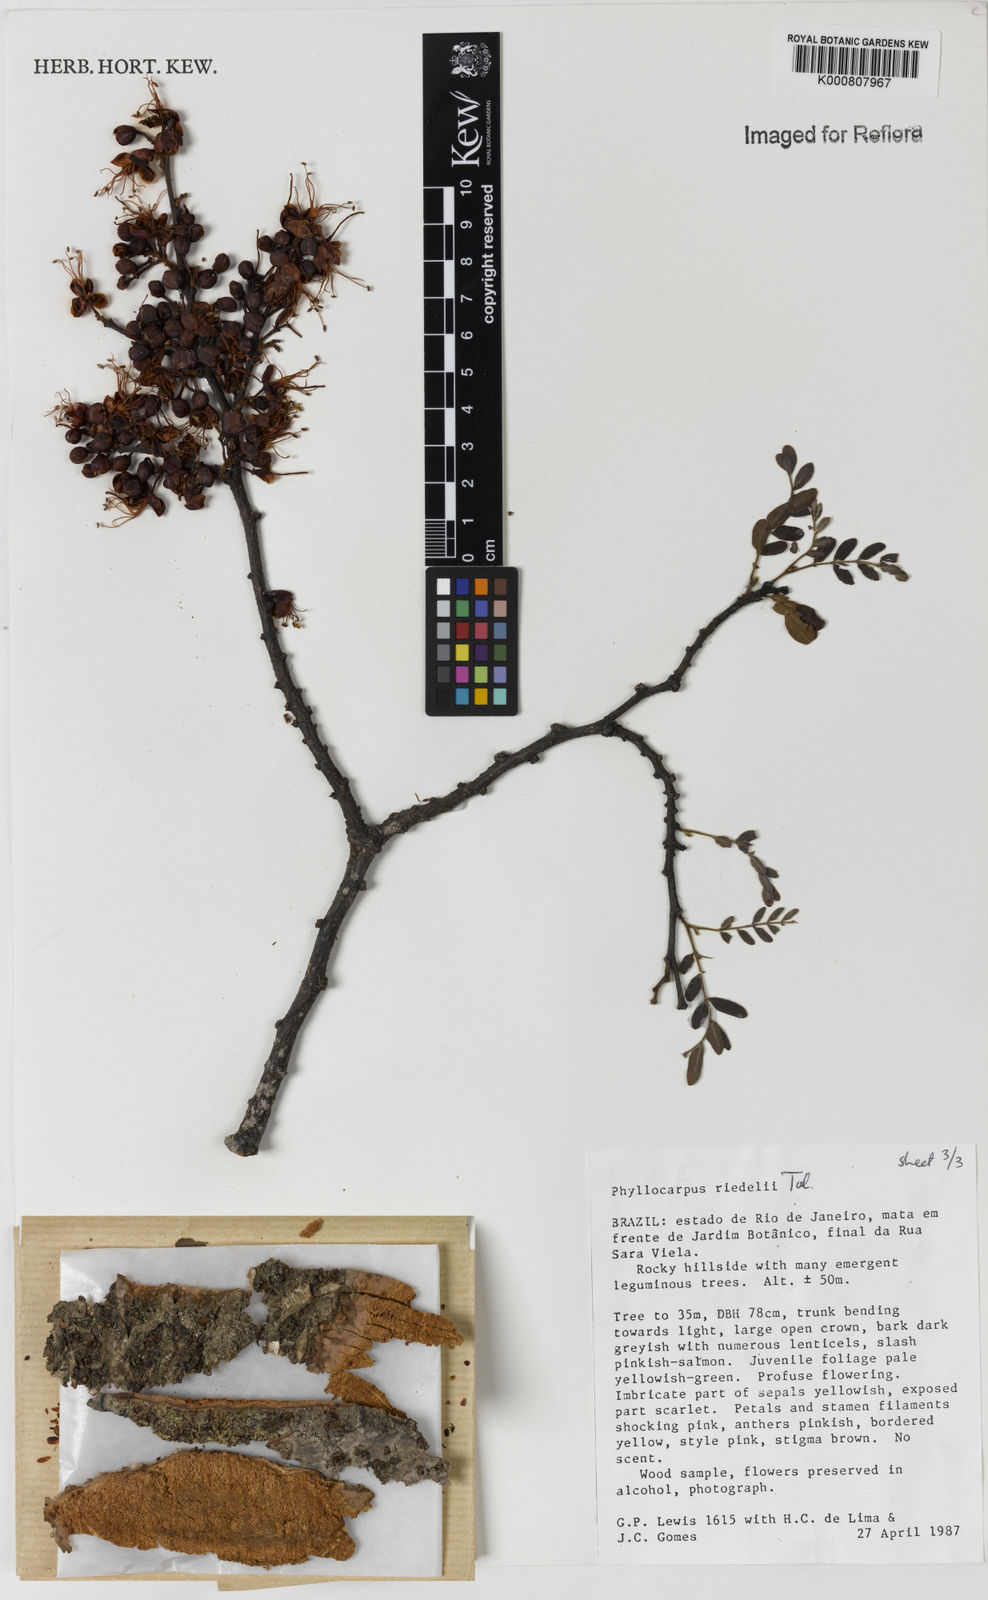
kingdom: Plantae
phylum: Tracheophyta
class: Magnoliopsida
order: Fabales
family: Fabaceae
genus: Barnebydendron
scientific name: Barnebydendron riedelii
